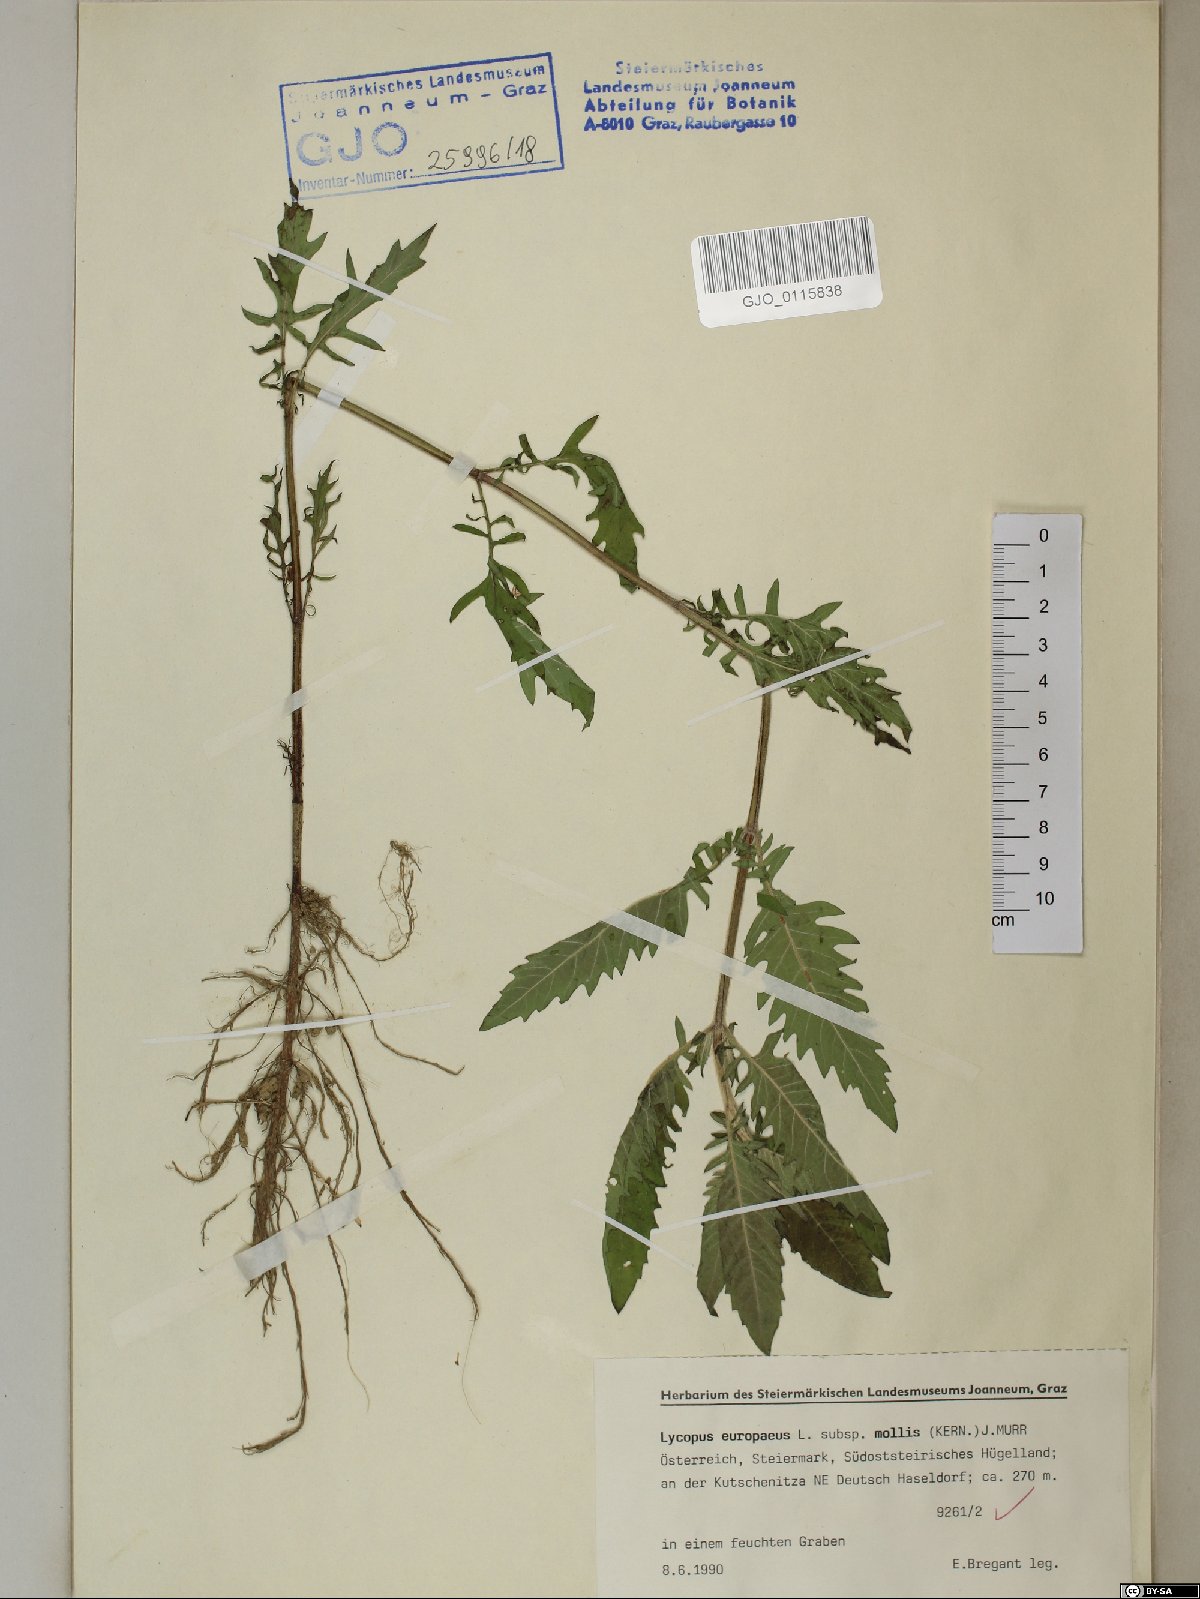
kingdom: Plantae
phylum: Tracheophyta
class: Magnoliopsida
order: Lamiales
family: Lamiaceae
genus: Lycopus
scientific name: Lycopus europaeus
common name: European bugleweed
